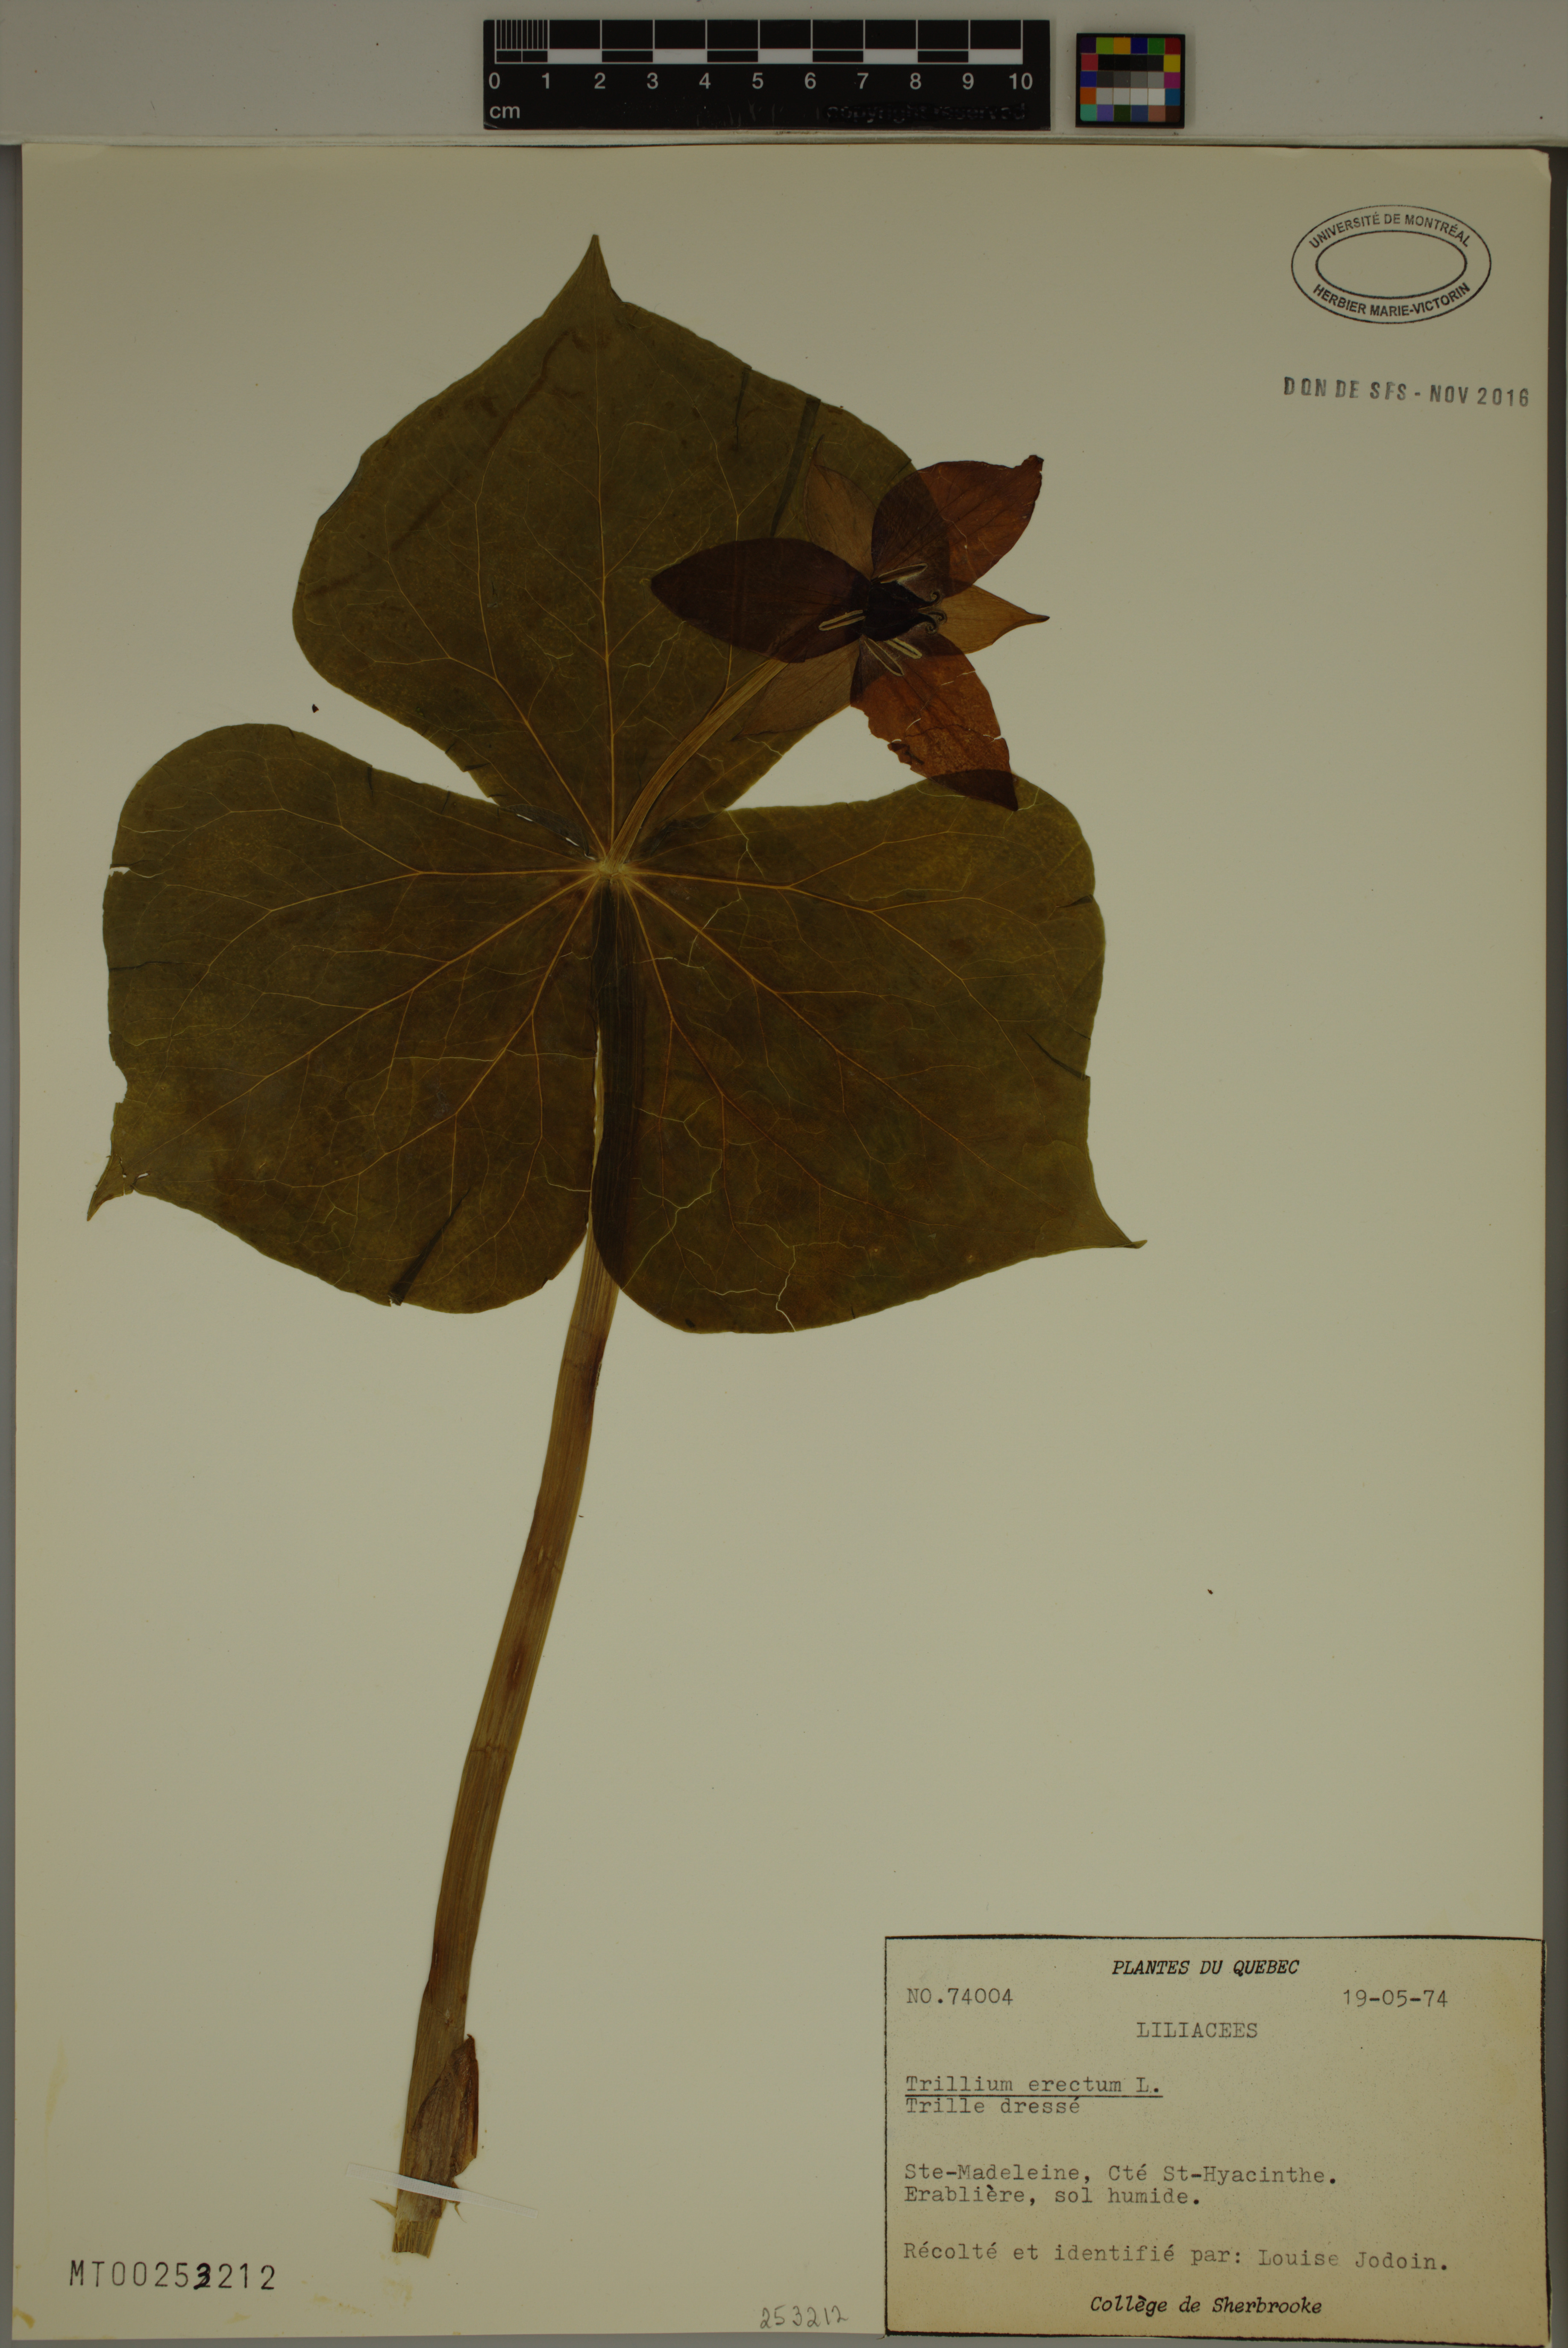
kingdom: Plantae
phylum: Tracheophyta
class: Liliopsida
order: Liliales
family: Melanthiaceae
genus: Trillium
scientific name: Trillium erectum
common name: Purple trillium
